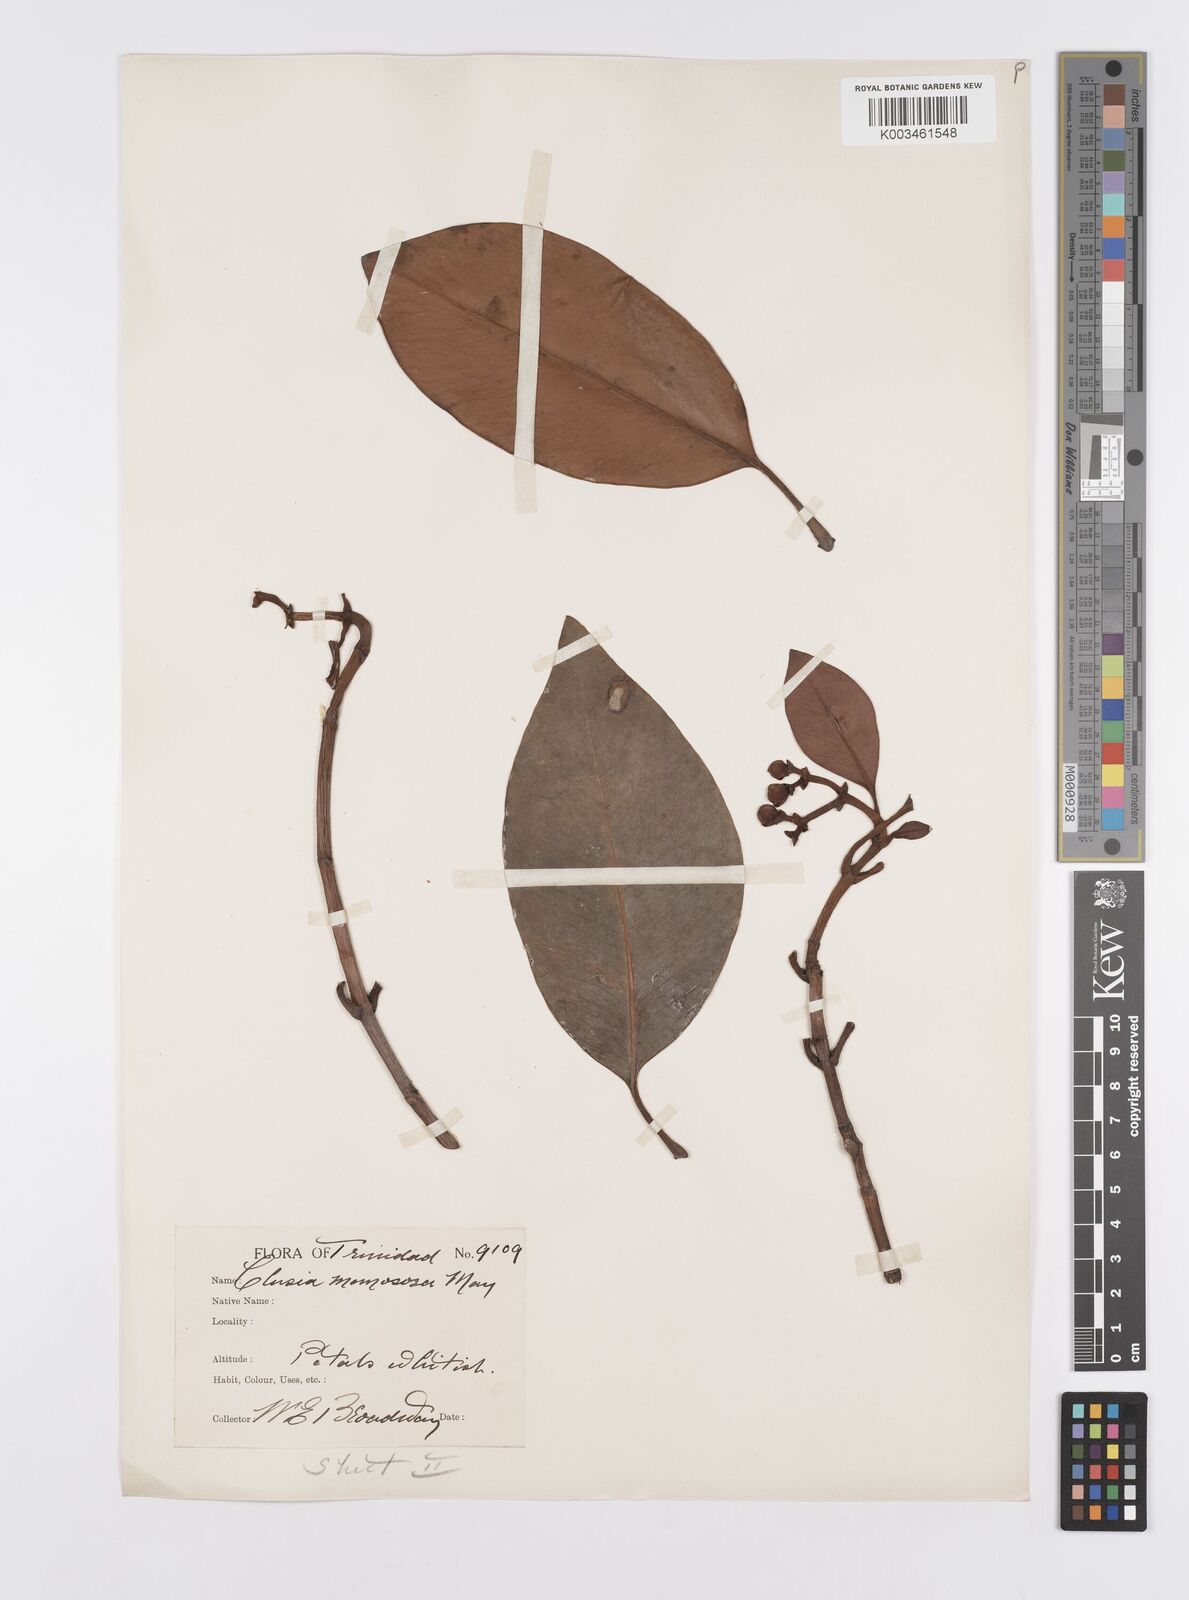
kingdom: Plantae
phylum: Tracheophyta
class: Magnoliopsida
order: Malpighiales
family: Clusiaceae
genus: Clusia
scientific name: Clusia nemorosa
